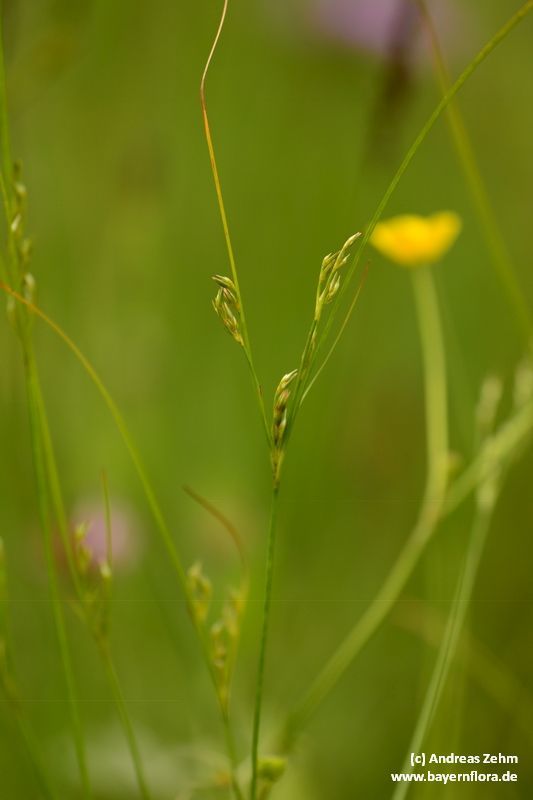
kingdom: Plantae
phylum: Tracheophyta
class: Liliopsida
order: Poales
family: Juncaceae
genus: Juncus
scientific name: Juncus tenuis
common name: Slender rush
